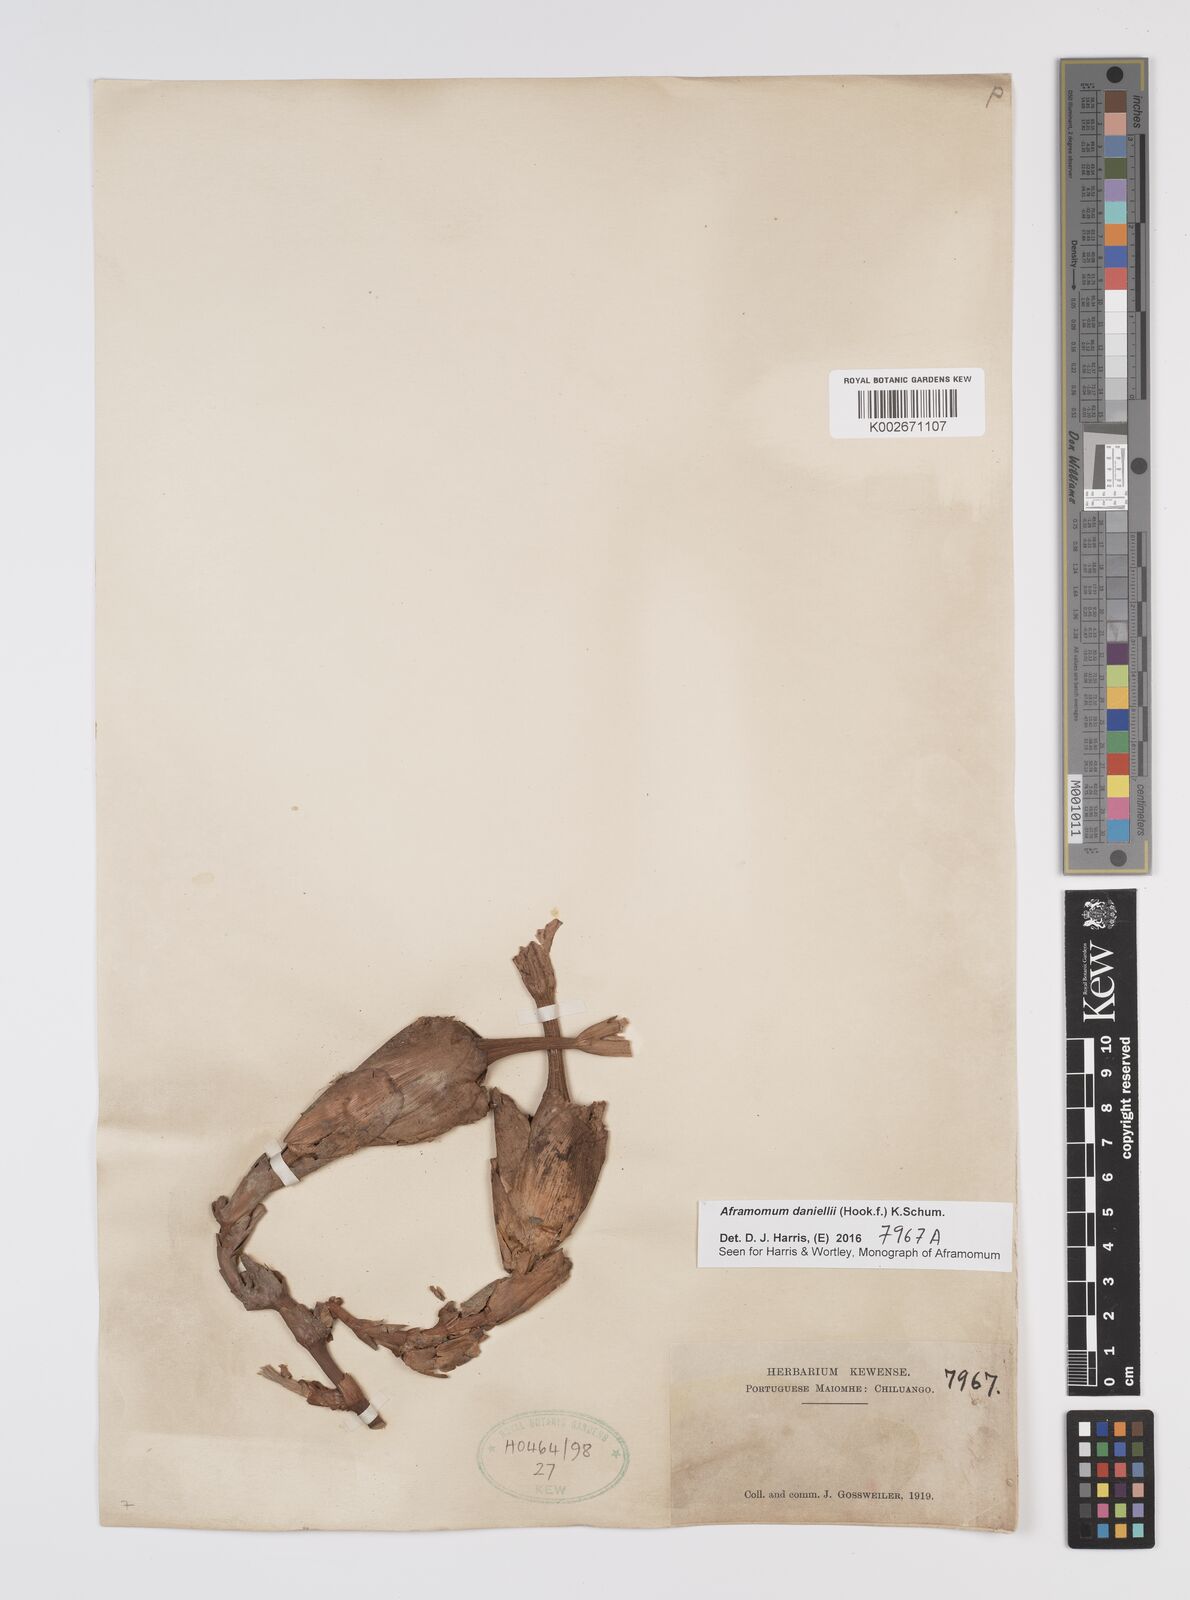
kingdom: Plantae
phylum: Tracheophyta
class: Liliopsida
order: Zingiberales
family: Zingiberaceae
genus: Aframomum
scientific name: Aframomum daniellii
